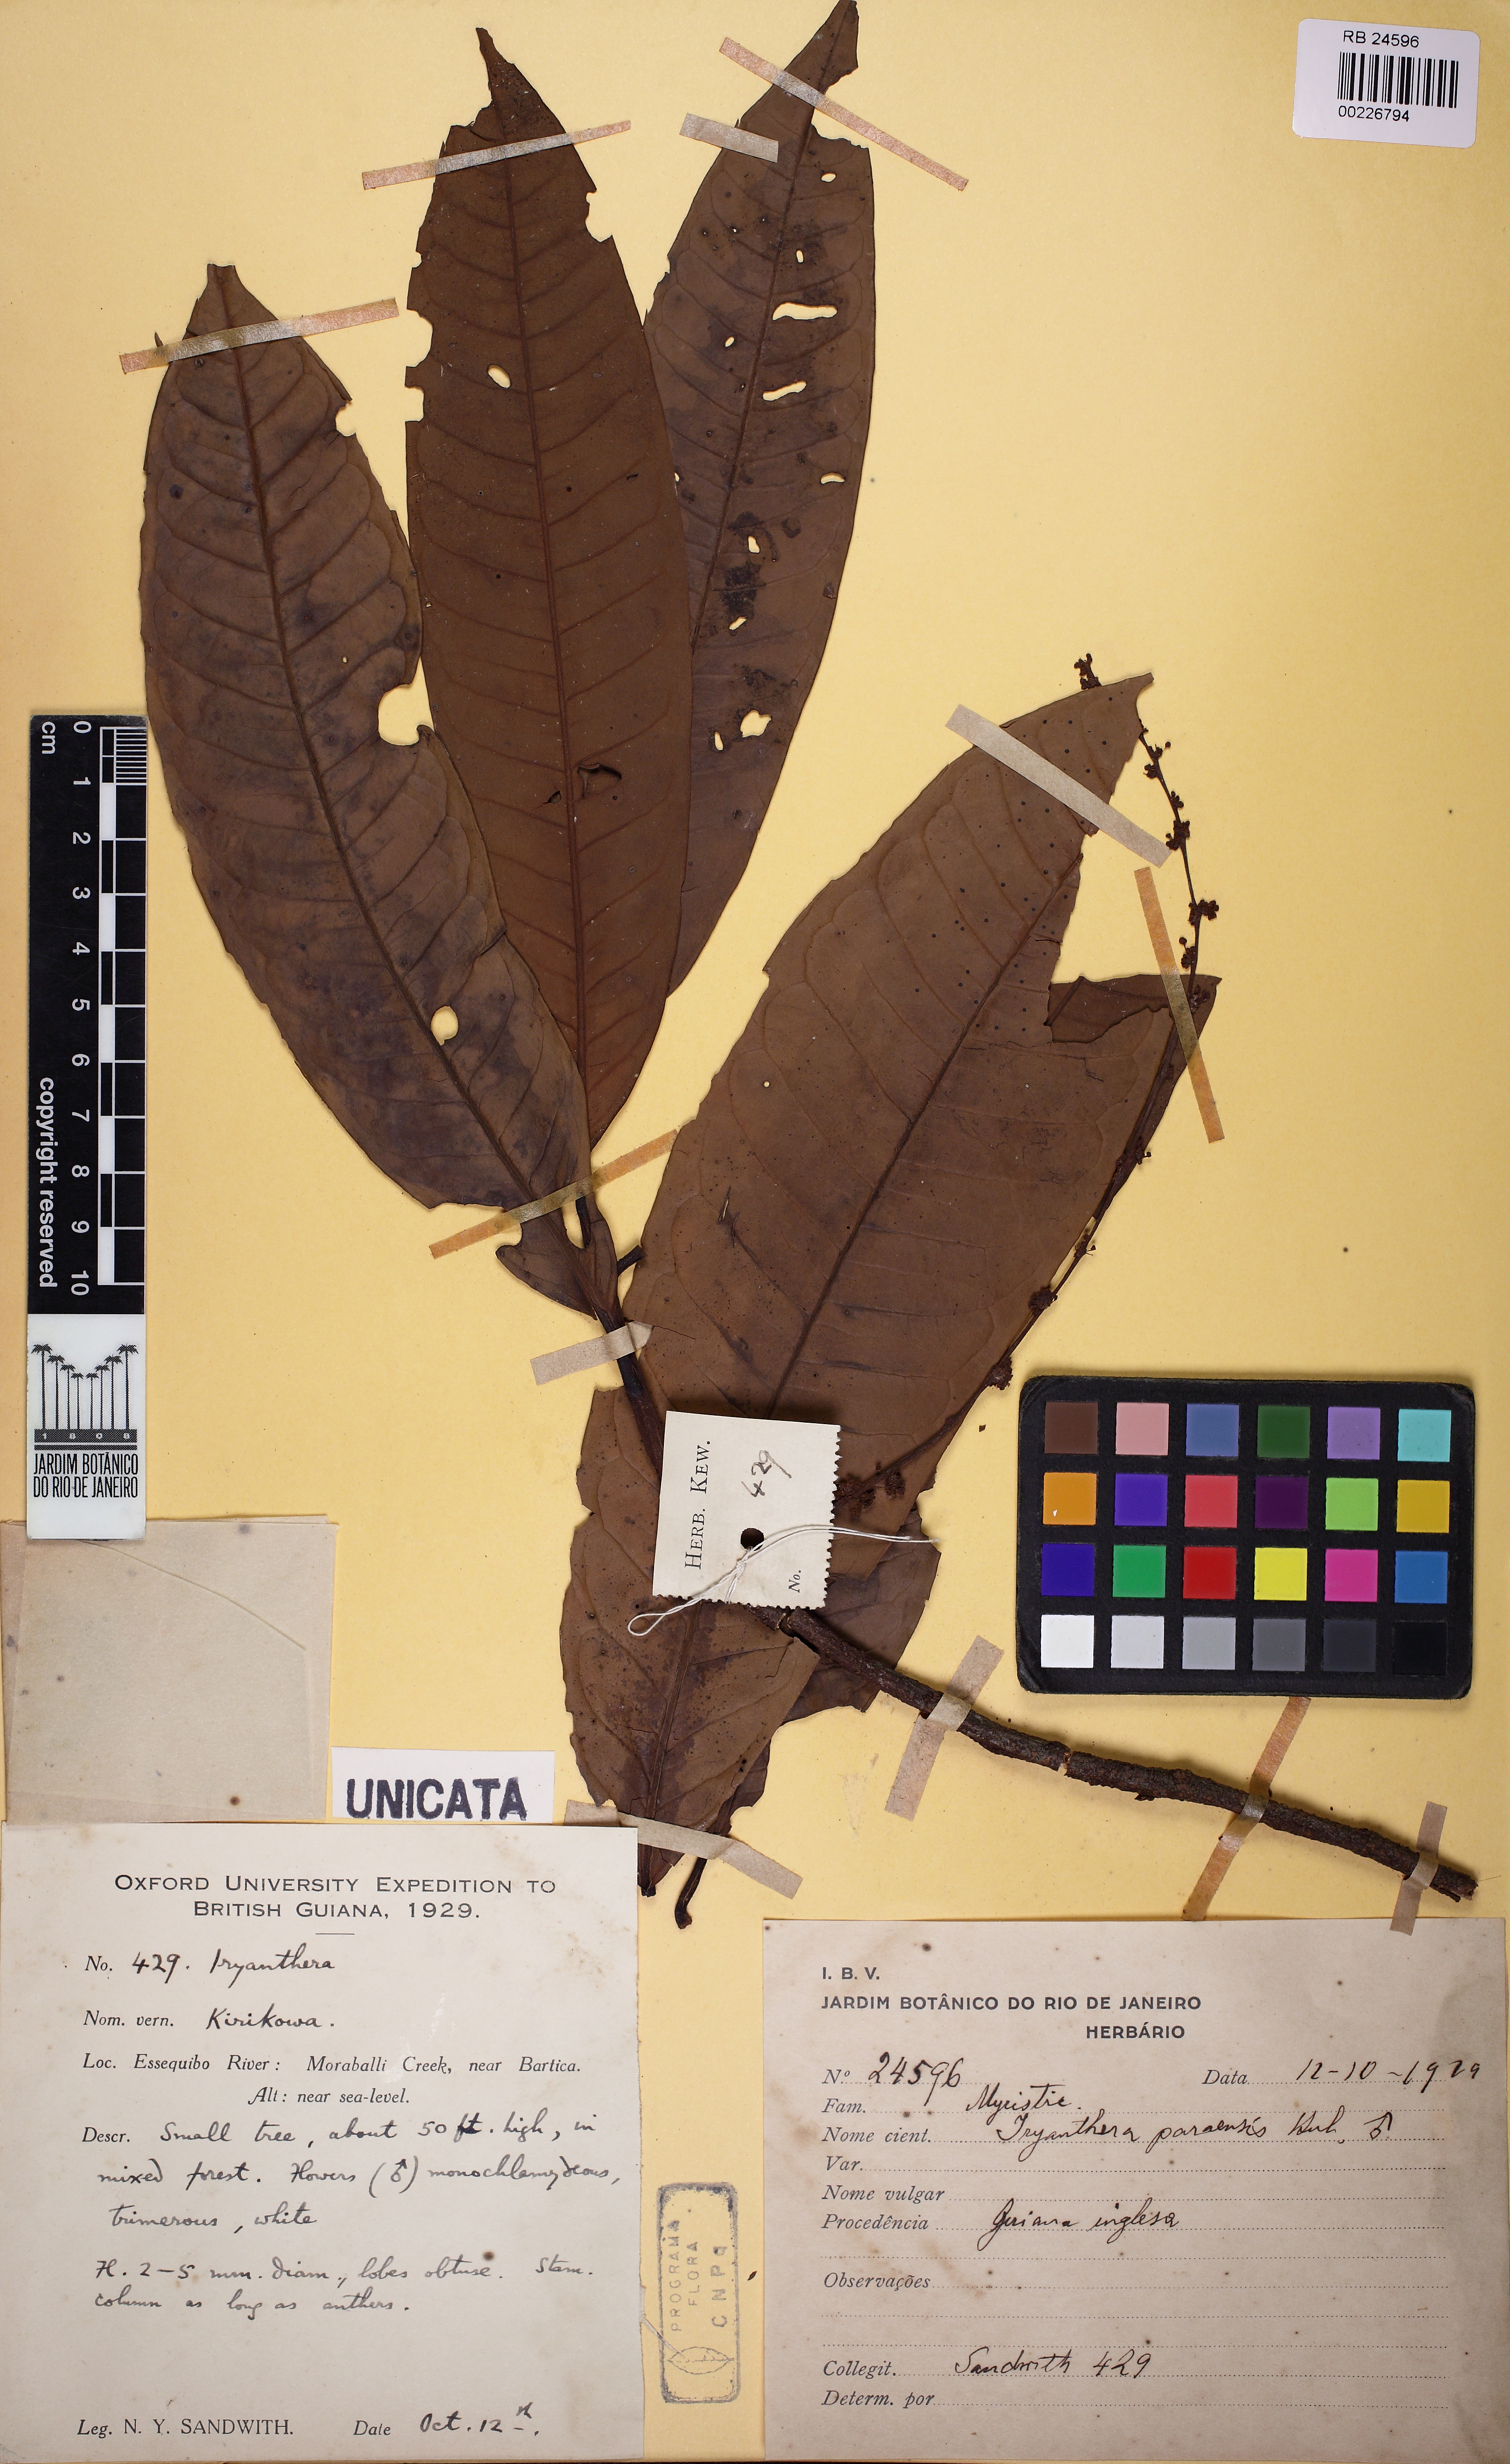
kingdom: Plantae
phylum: Tracheophyta
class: Magnoliopsida
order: Magnoliales
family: Myristicaceae
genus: Iryanthera
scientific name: Iryanthera paraensis
